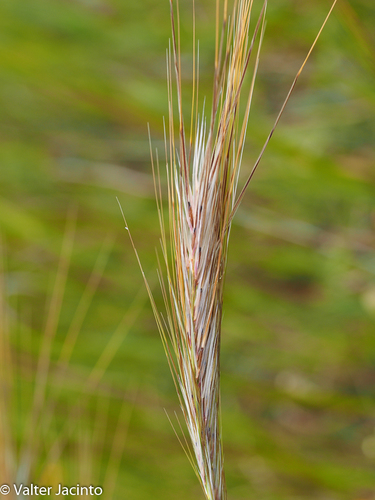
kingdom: Plantae
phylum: Tracheophyta
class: Liliopsida
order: Poales
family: Poaceae
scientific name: Poaceae
